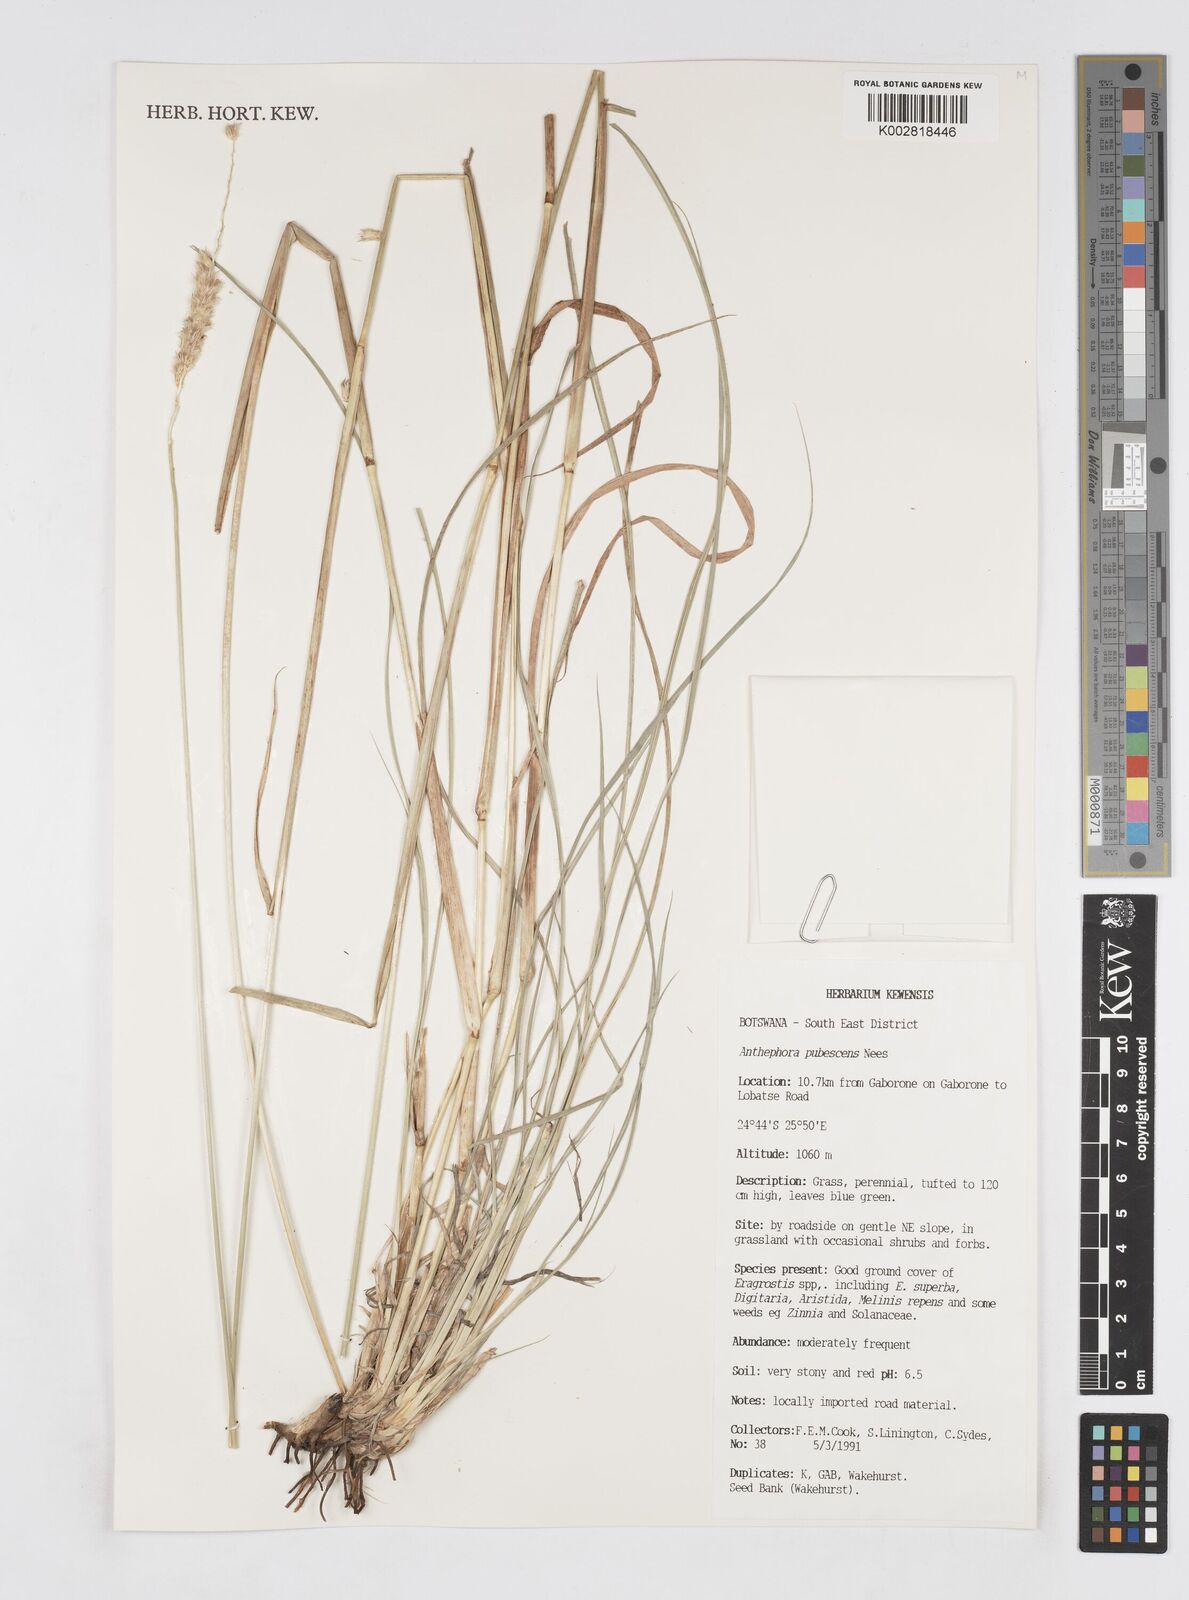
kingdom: Plantae
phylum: Tracheophyta
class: Liliopsida
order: Poales
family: Poaceae
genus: Anthephora
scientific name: Anthephora pubescens
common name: Wool grass
